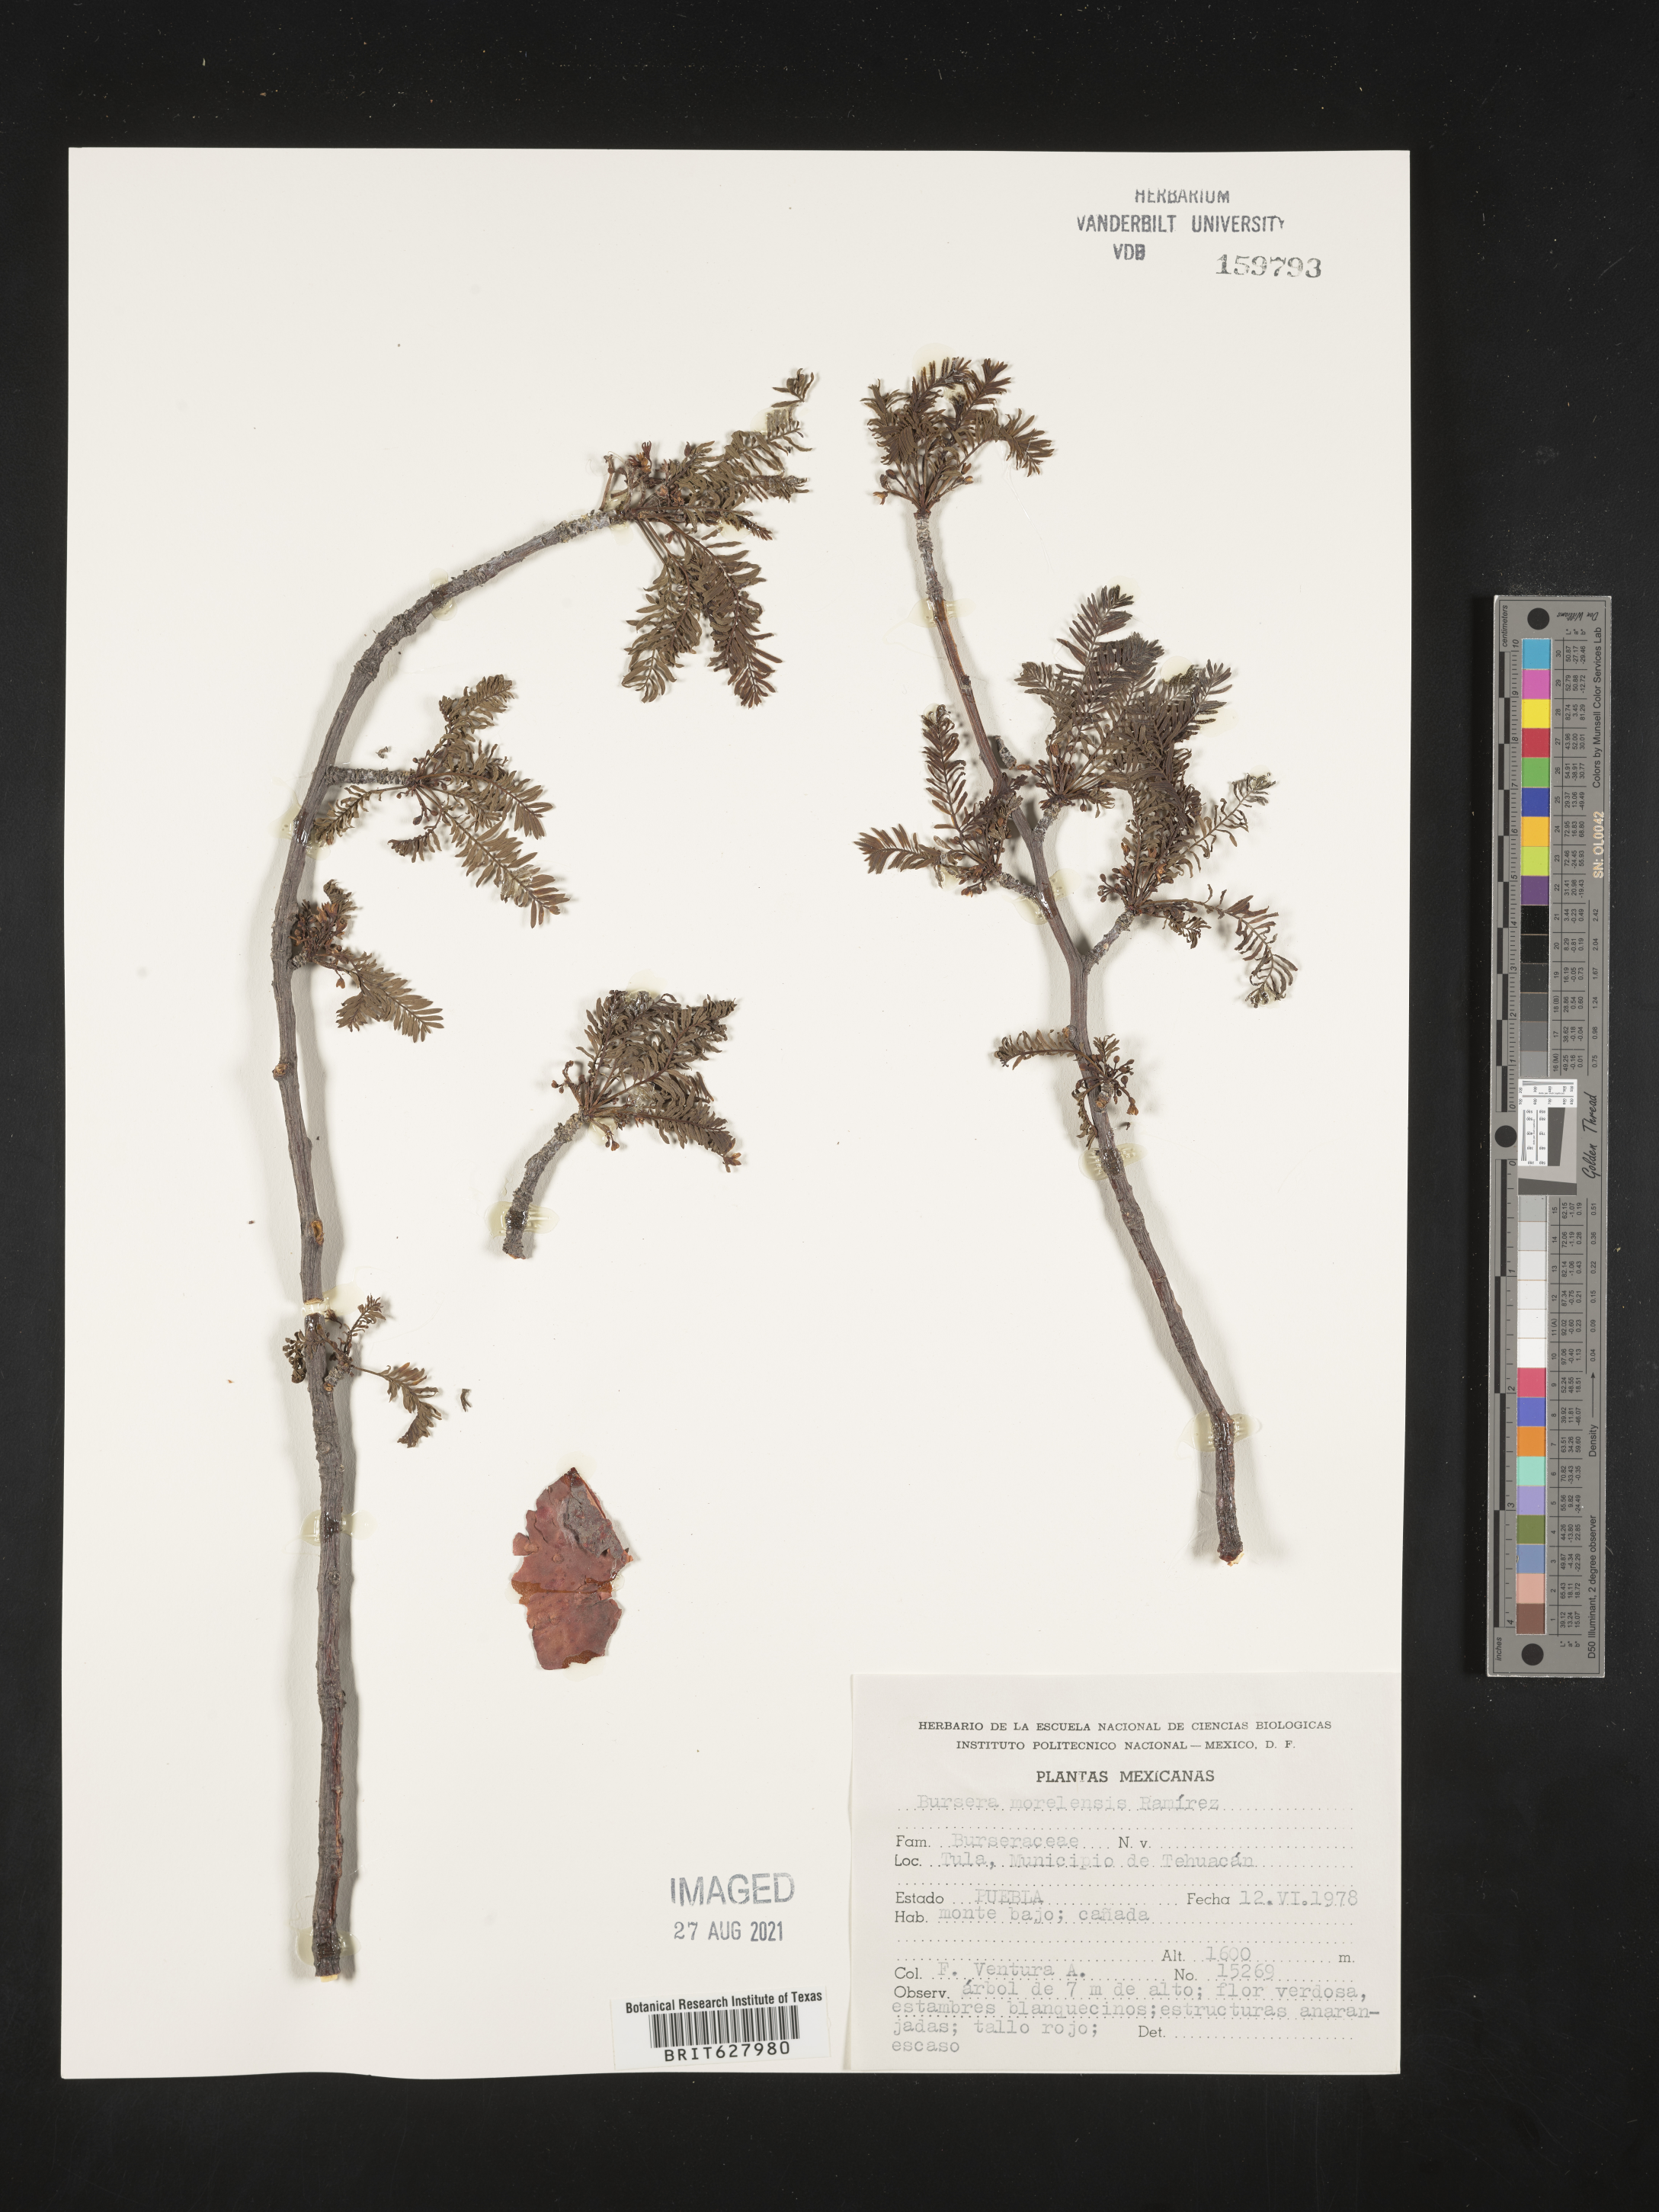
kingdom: Plantae
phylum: Tracheophyta
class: Magnoliopsida
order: Sapindales
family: Burseraceae
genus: Bursera
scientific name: Bursera
